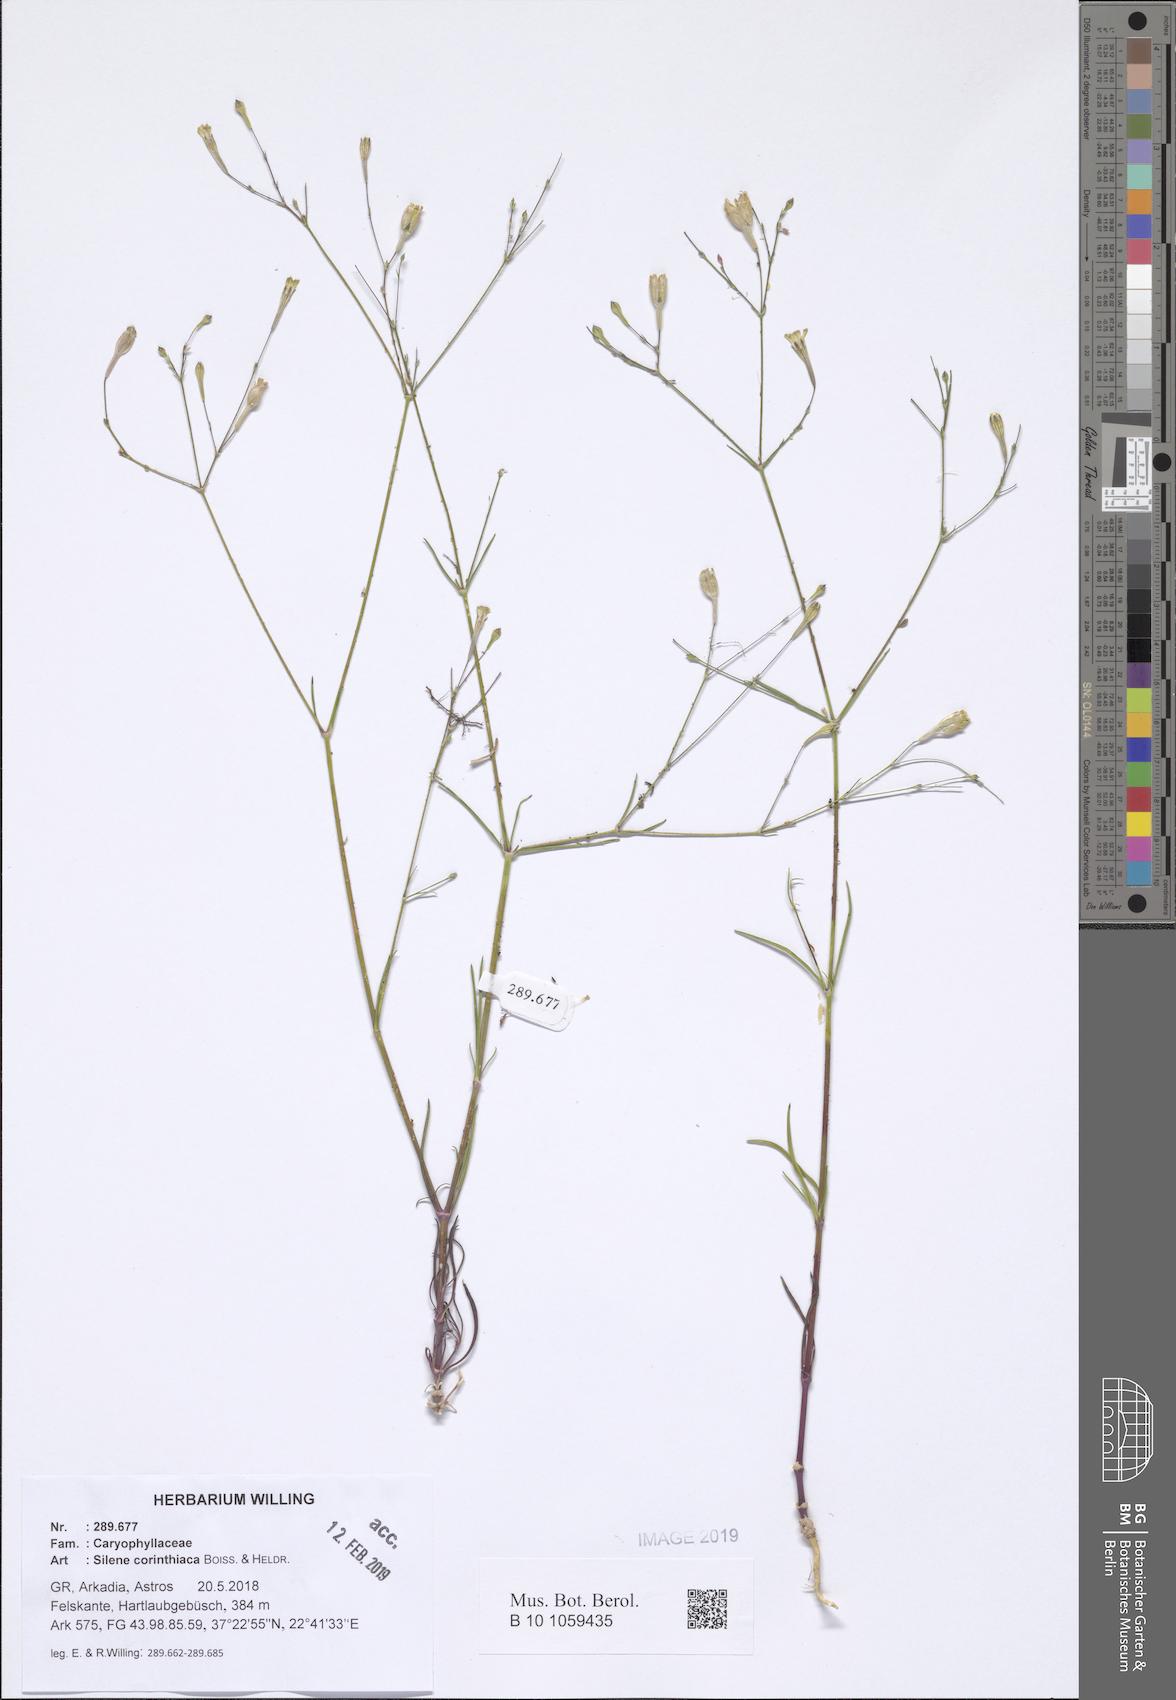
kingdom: Plantae
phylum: Tracheophyta
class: Magnoliopsida
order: Caryophyllales
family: Caryophyllaceae
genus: Silene
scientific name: Silene corinthiaca
